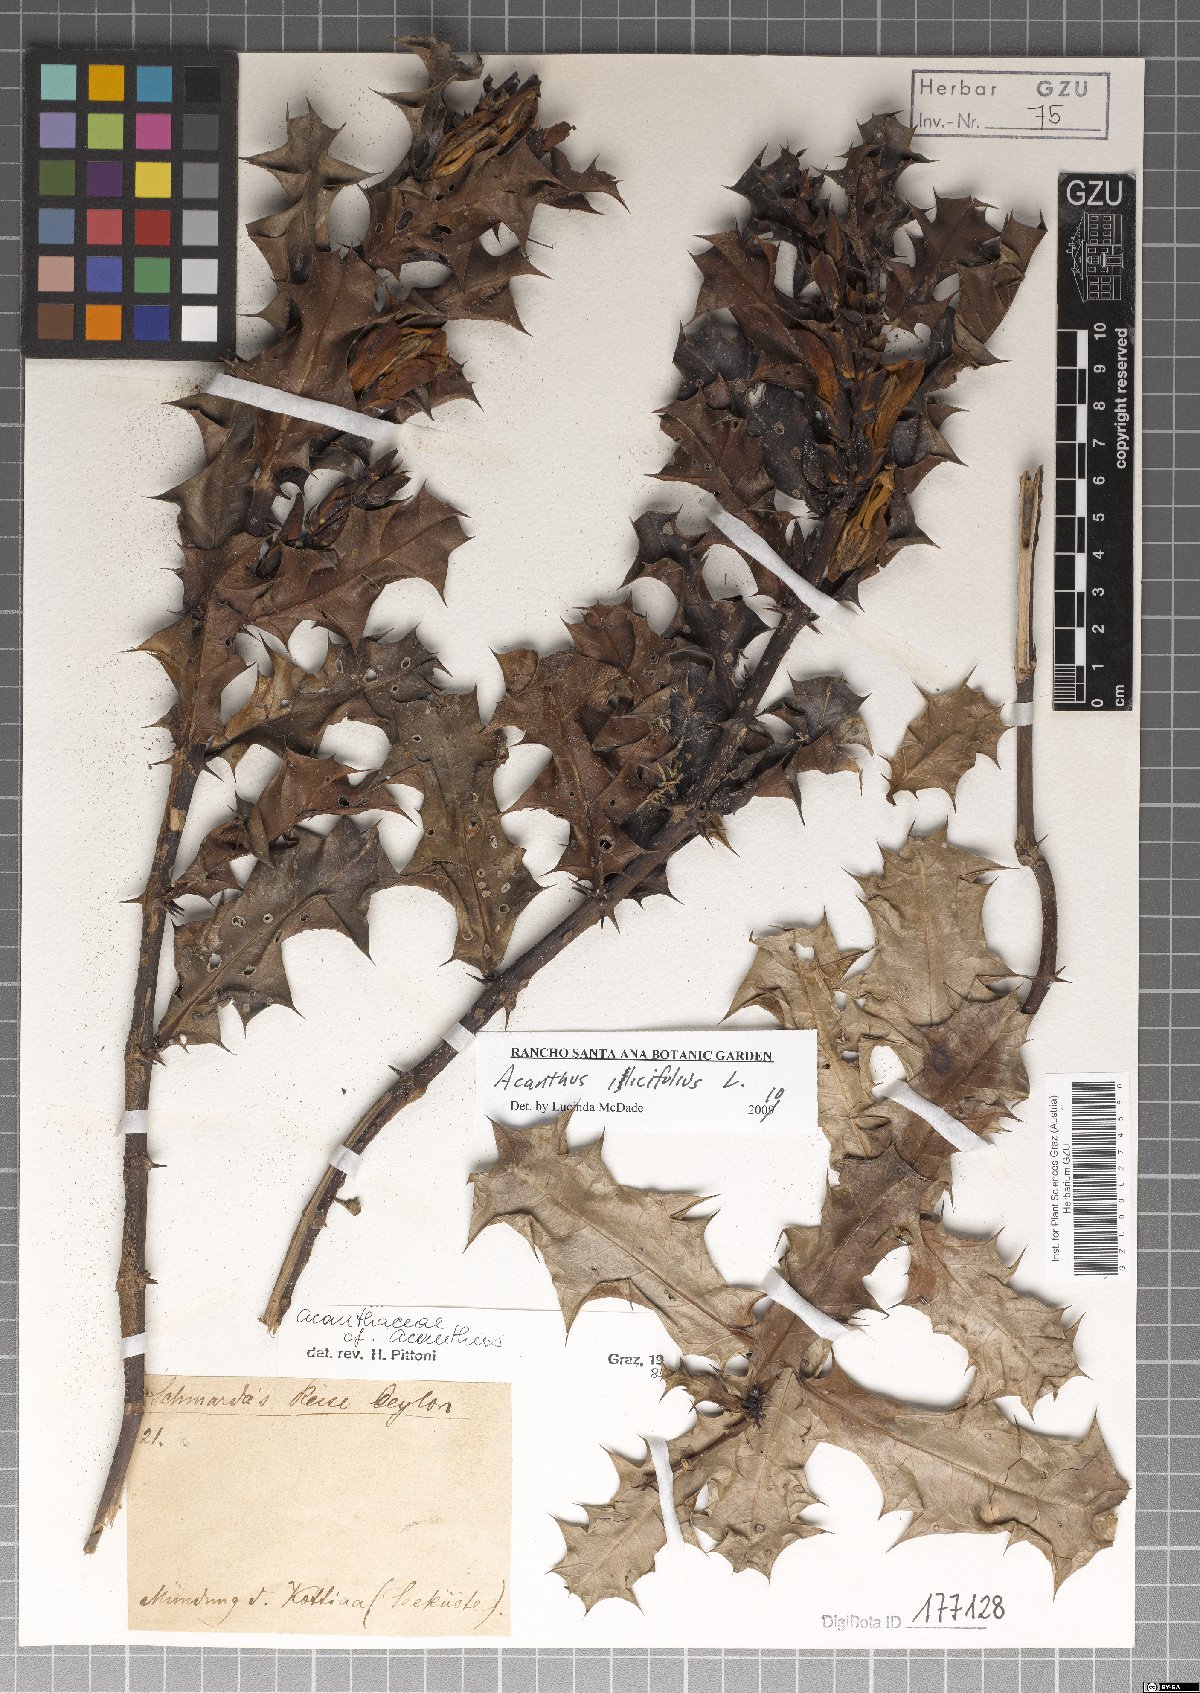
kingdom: Plantae
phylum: Tracheophyta
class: Magnoliopsida
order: Lamiales
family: Acanthaceae
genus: Acanthus
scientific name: Acanthus ilicifolius
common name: Holy mangrove
